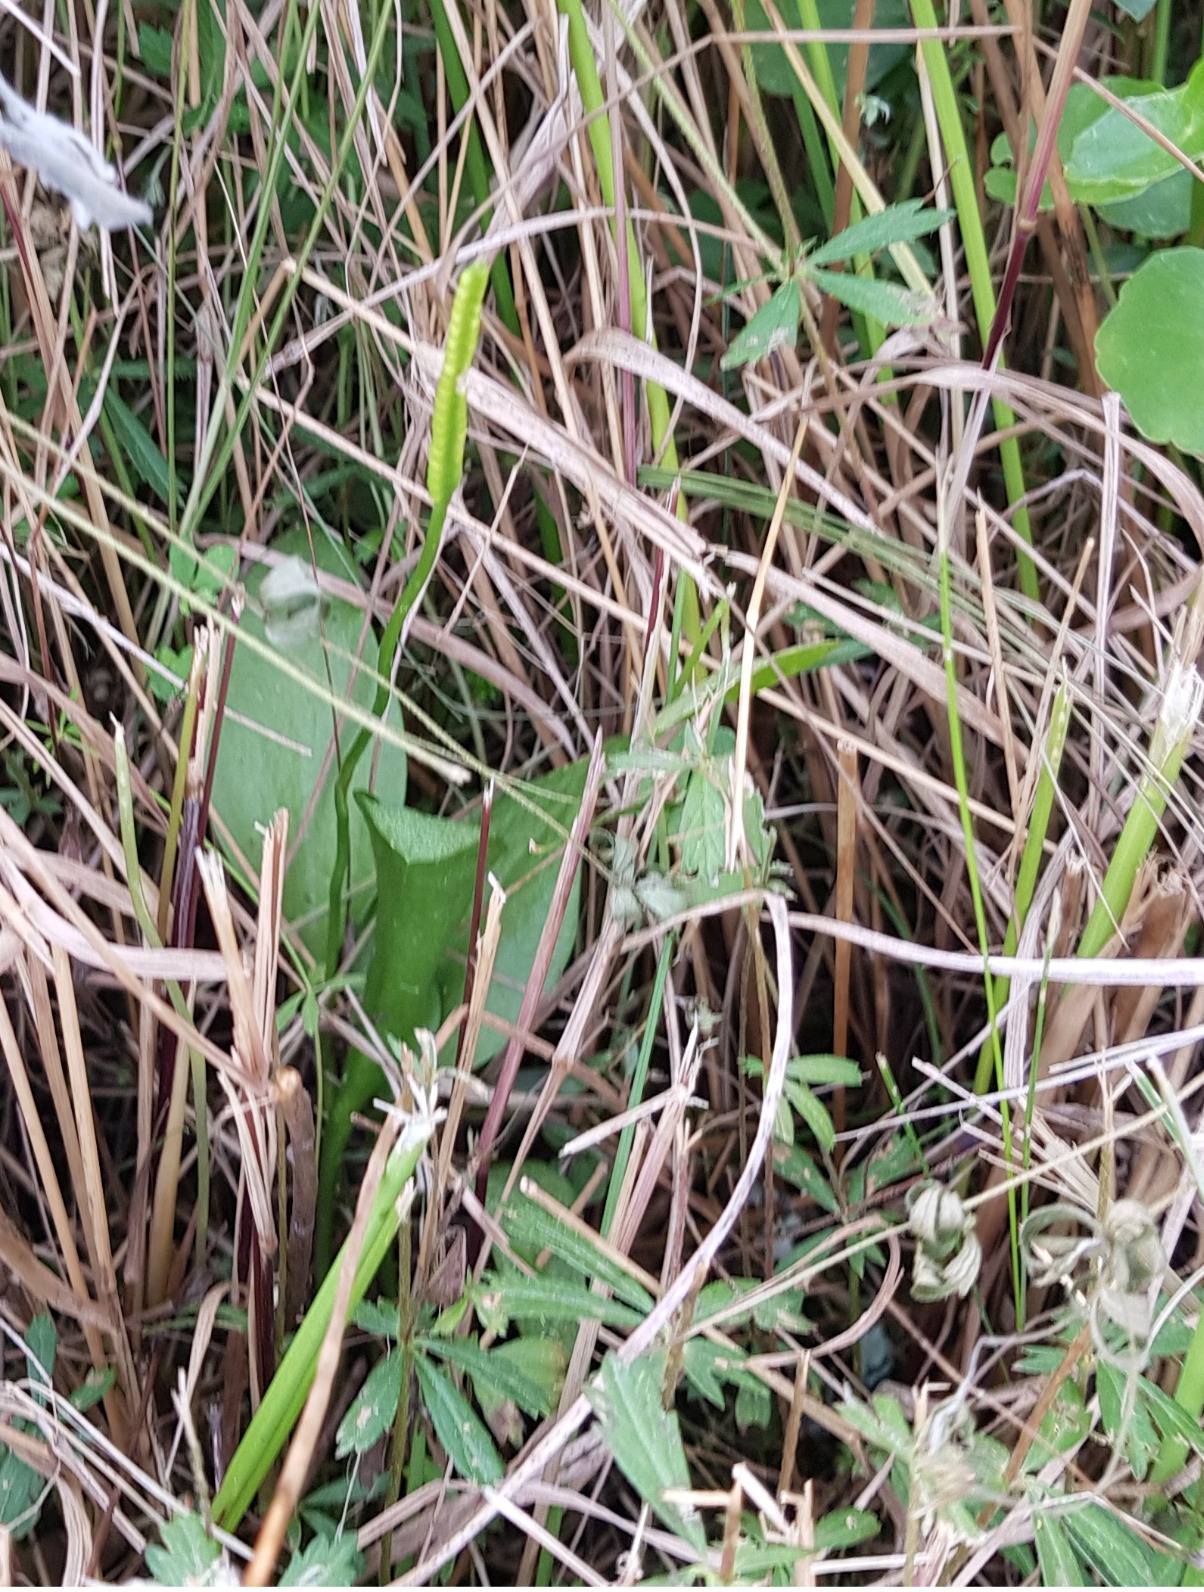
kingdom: Plantae
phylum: Tracheophyta
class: Polypodiopsida
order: Ophioglossales
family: Ophioglossaceae
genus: Ophioglossum
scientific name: Ophioglossum vulgatum
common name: Slangetunge
